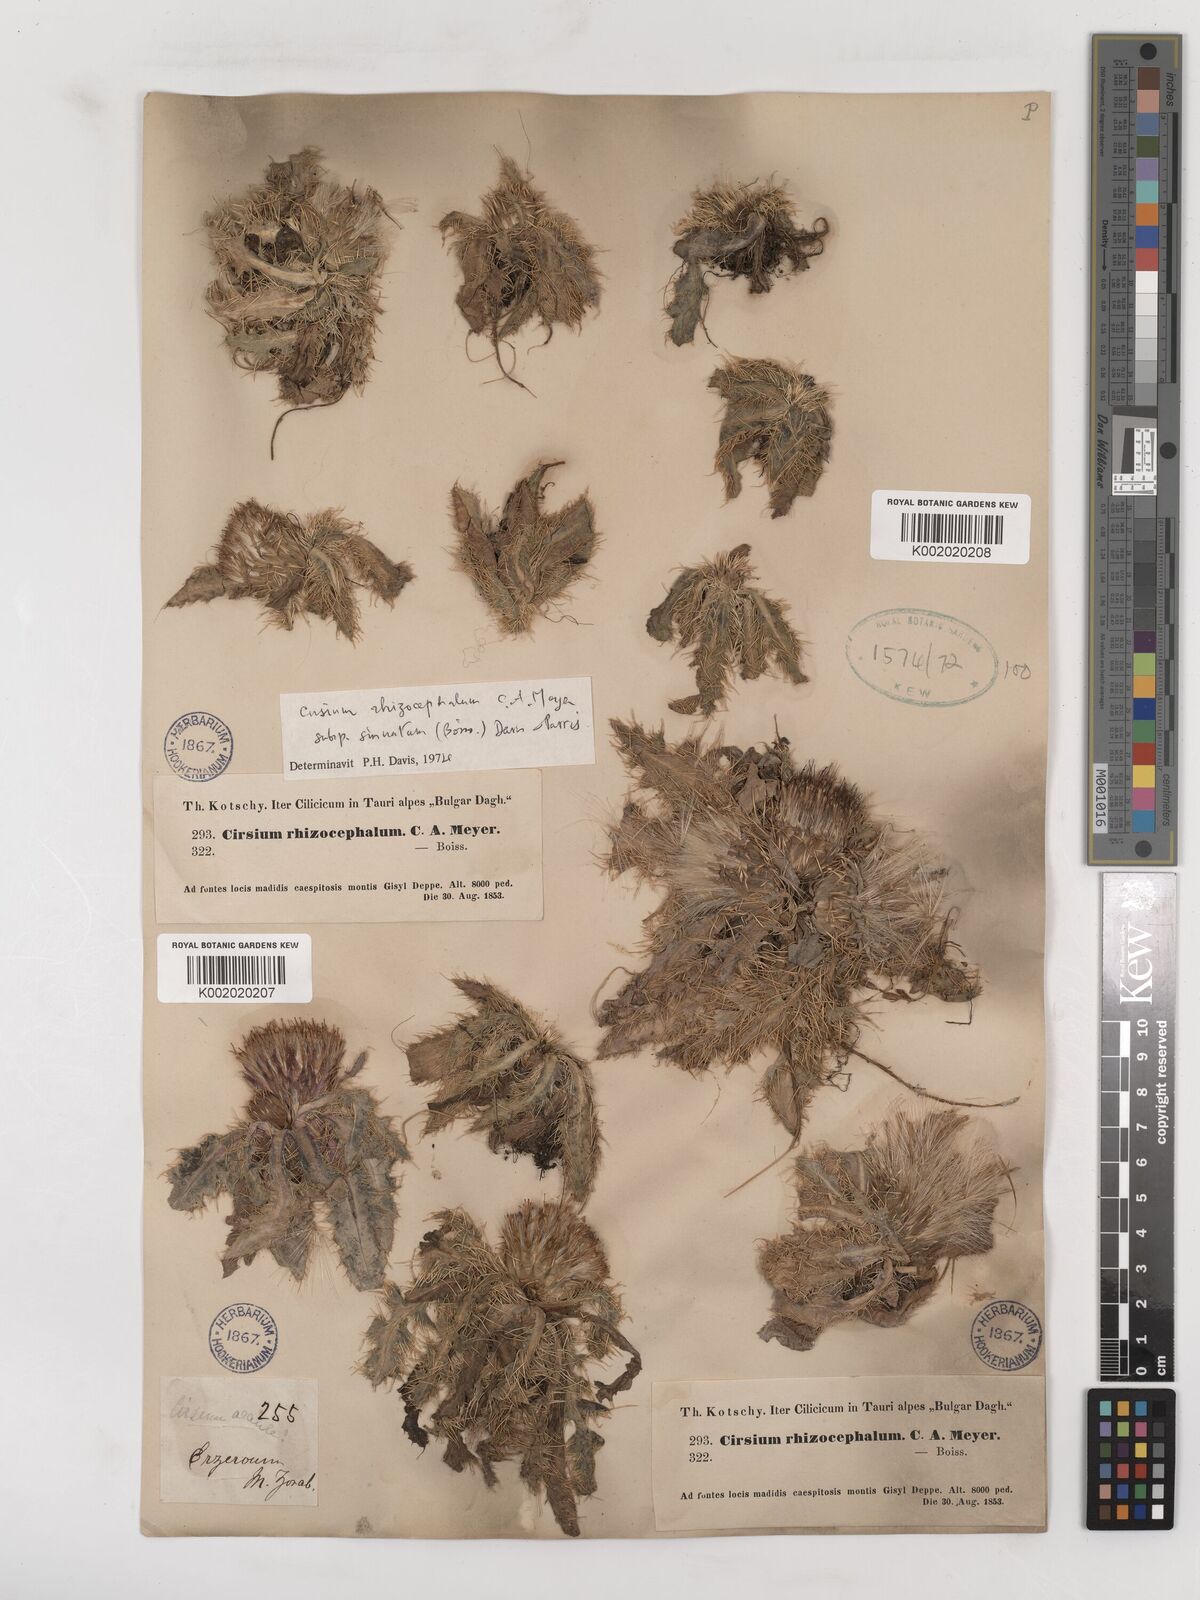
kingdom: Plantae
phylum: Tracheophyta
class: Magnoliopsida
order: Asterales
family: Asteraceae
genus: Cirsium
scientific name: Cirsium rhizocephalum
